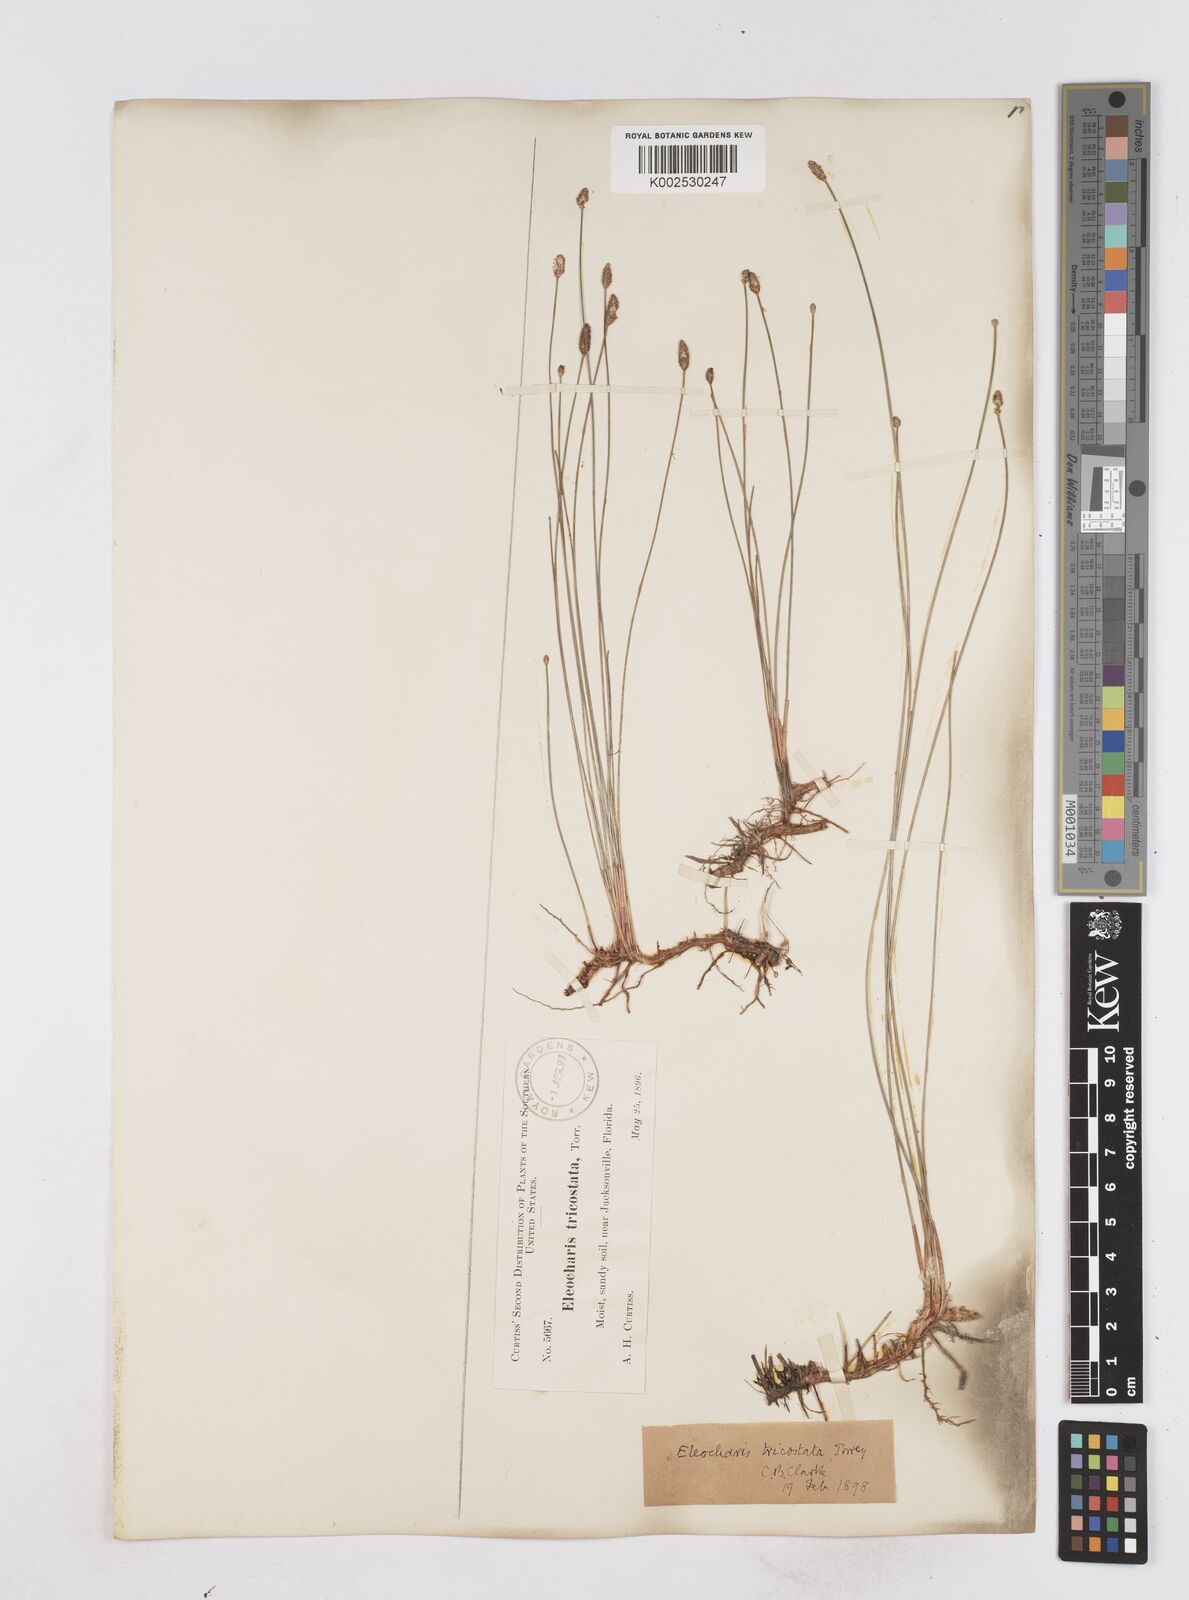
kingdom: Plantae
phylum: Tracheophyta
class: Liliopsida
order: Poales
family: Cyperaceae
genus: Eleocharis
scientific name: Eleocharis tricostata
